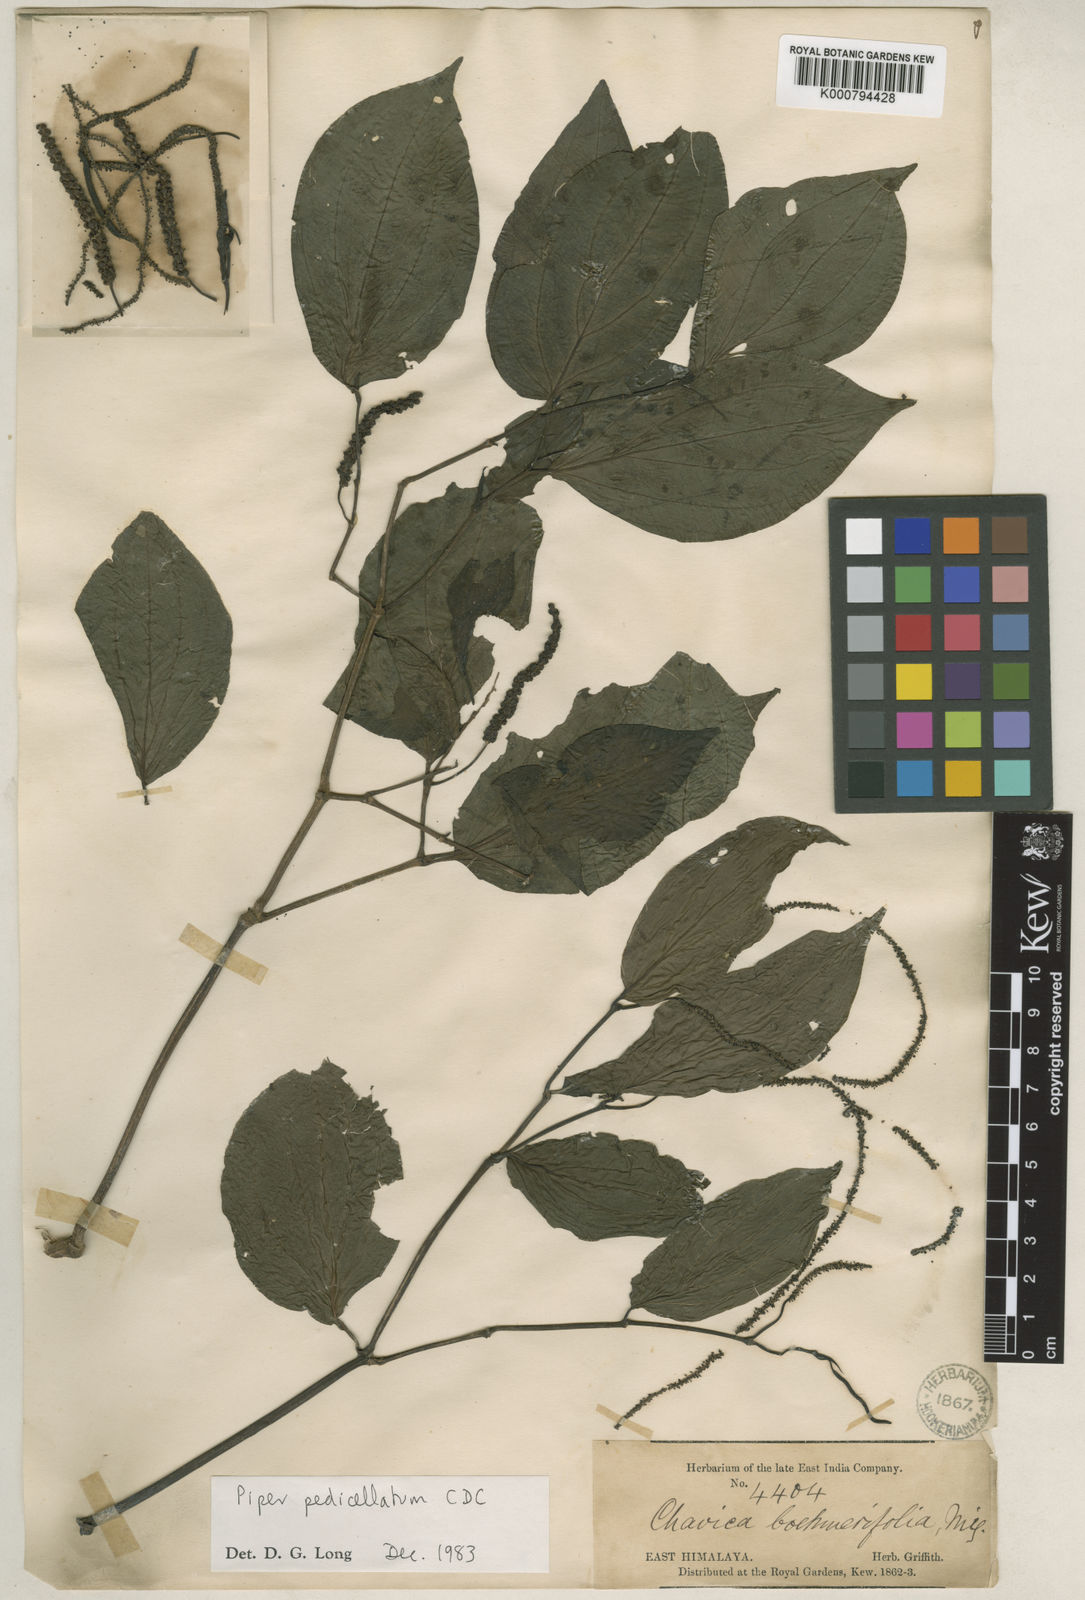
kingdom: Plantae
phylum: Tracheophyta
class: Magnoliopsida
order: Piperales
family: Piperaceae
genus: Piper
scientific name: Piper pedicellatum
